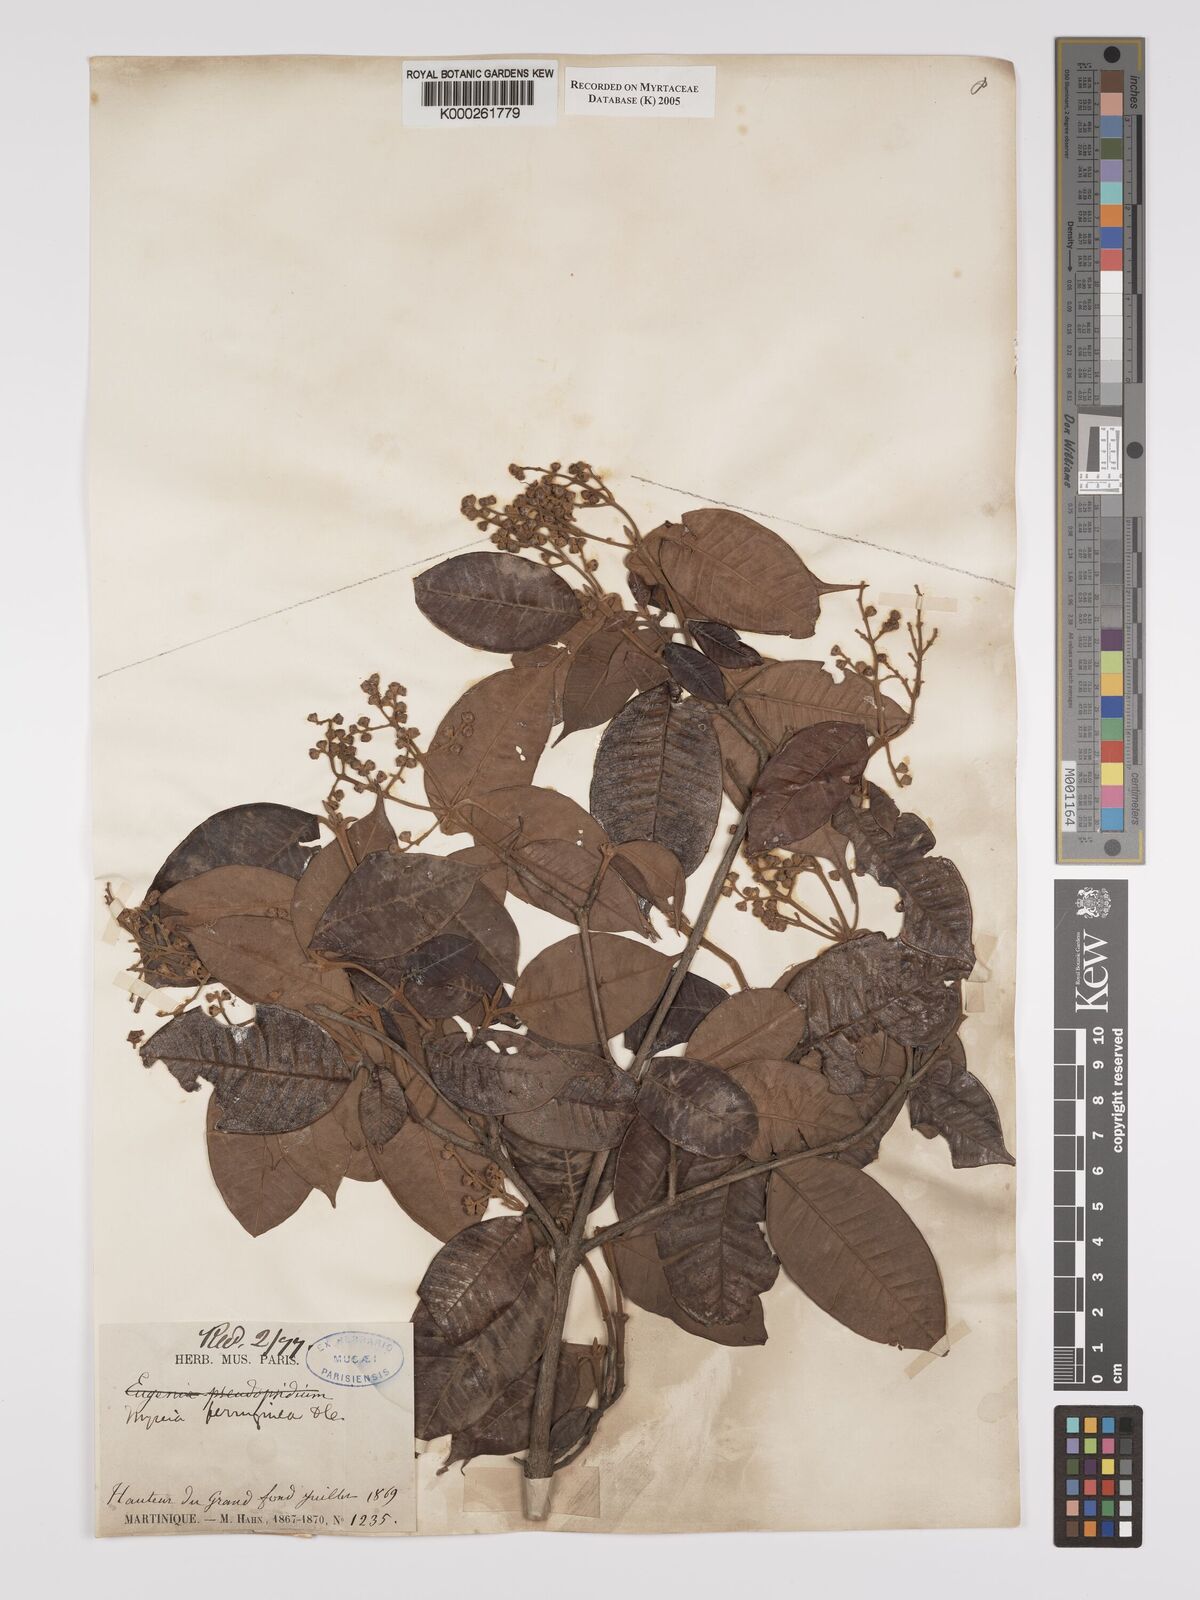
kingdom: Plantae
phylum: Tracheophyta
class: Magnoliopsida
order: Myrtales
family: Myrtaceae
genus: Myrcia
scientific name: Myrcia ferruginea
